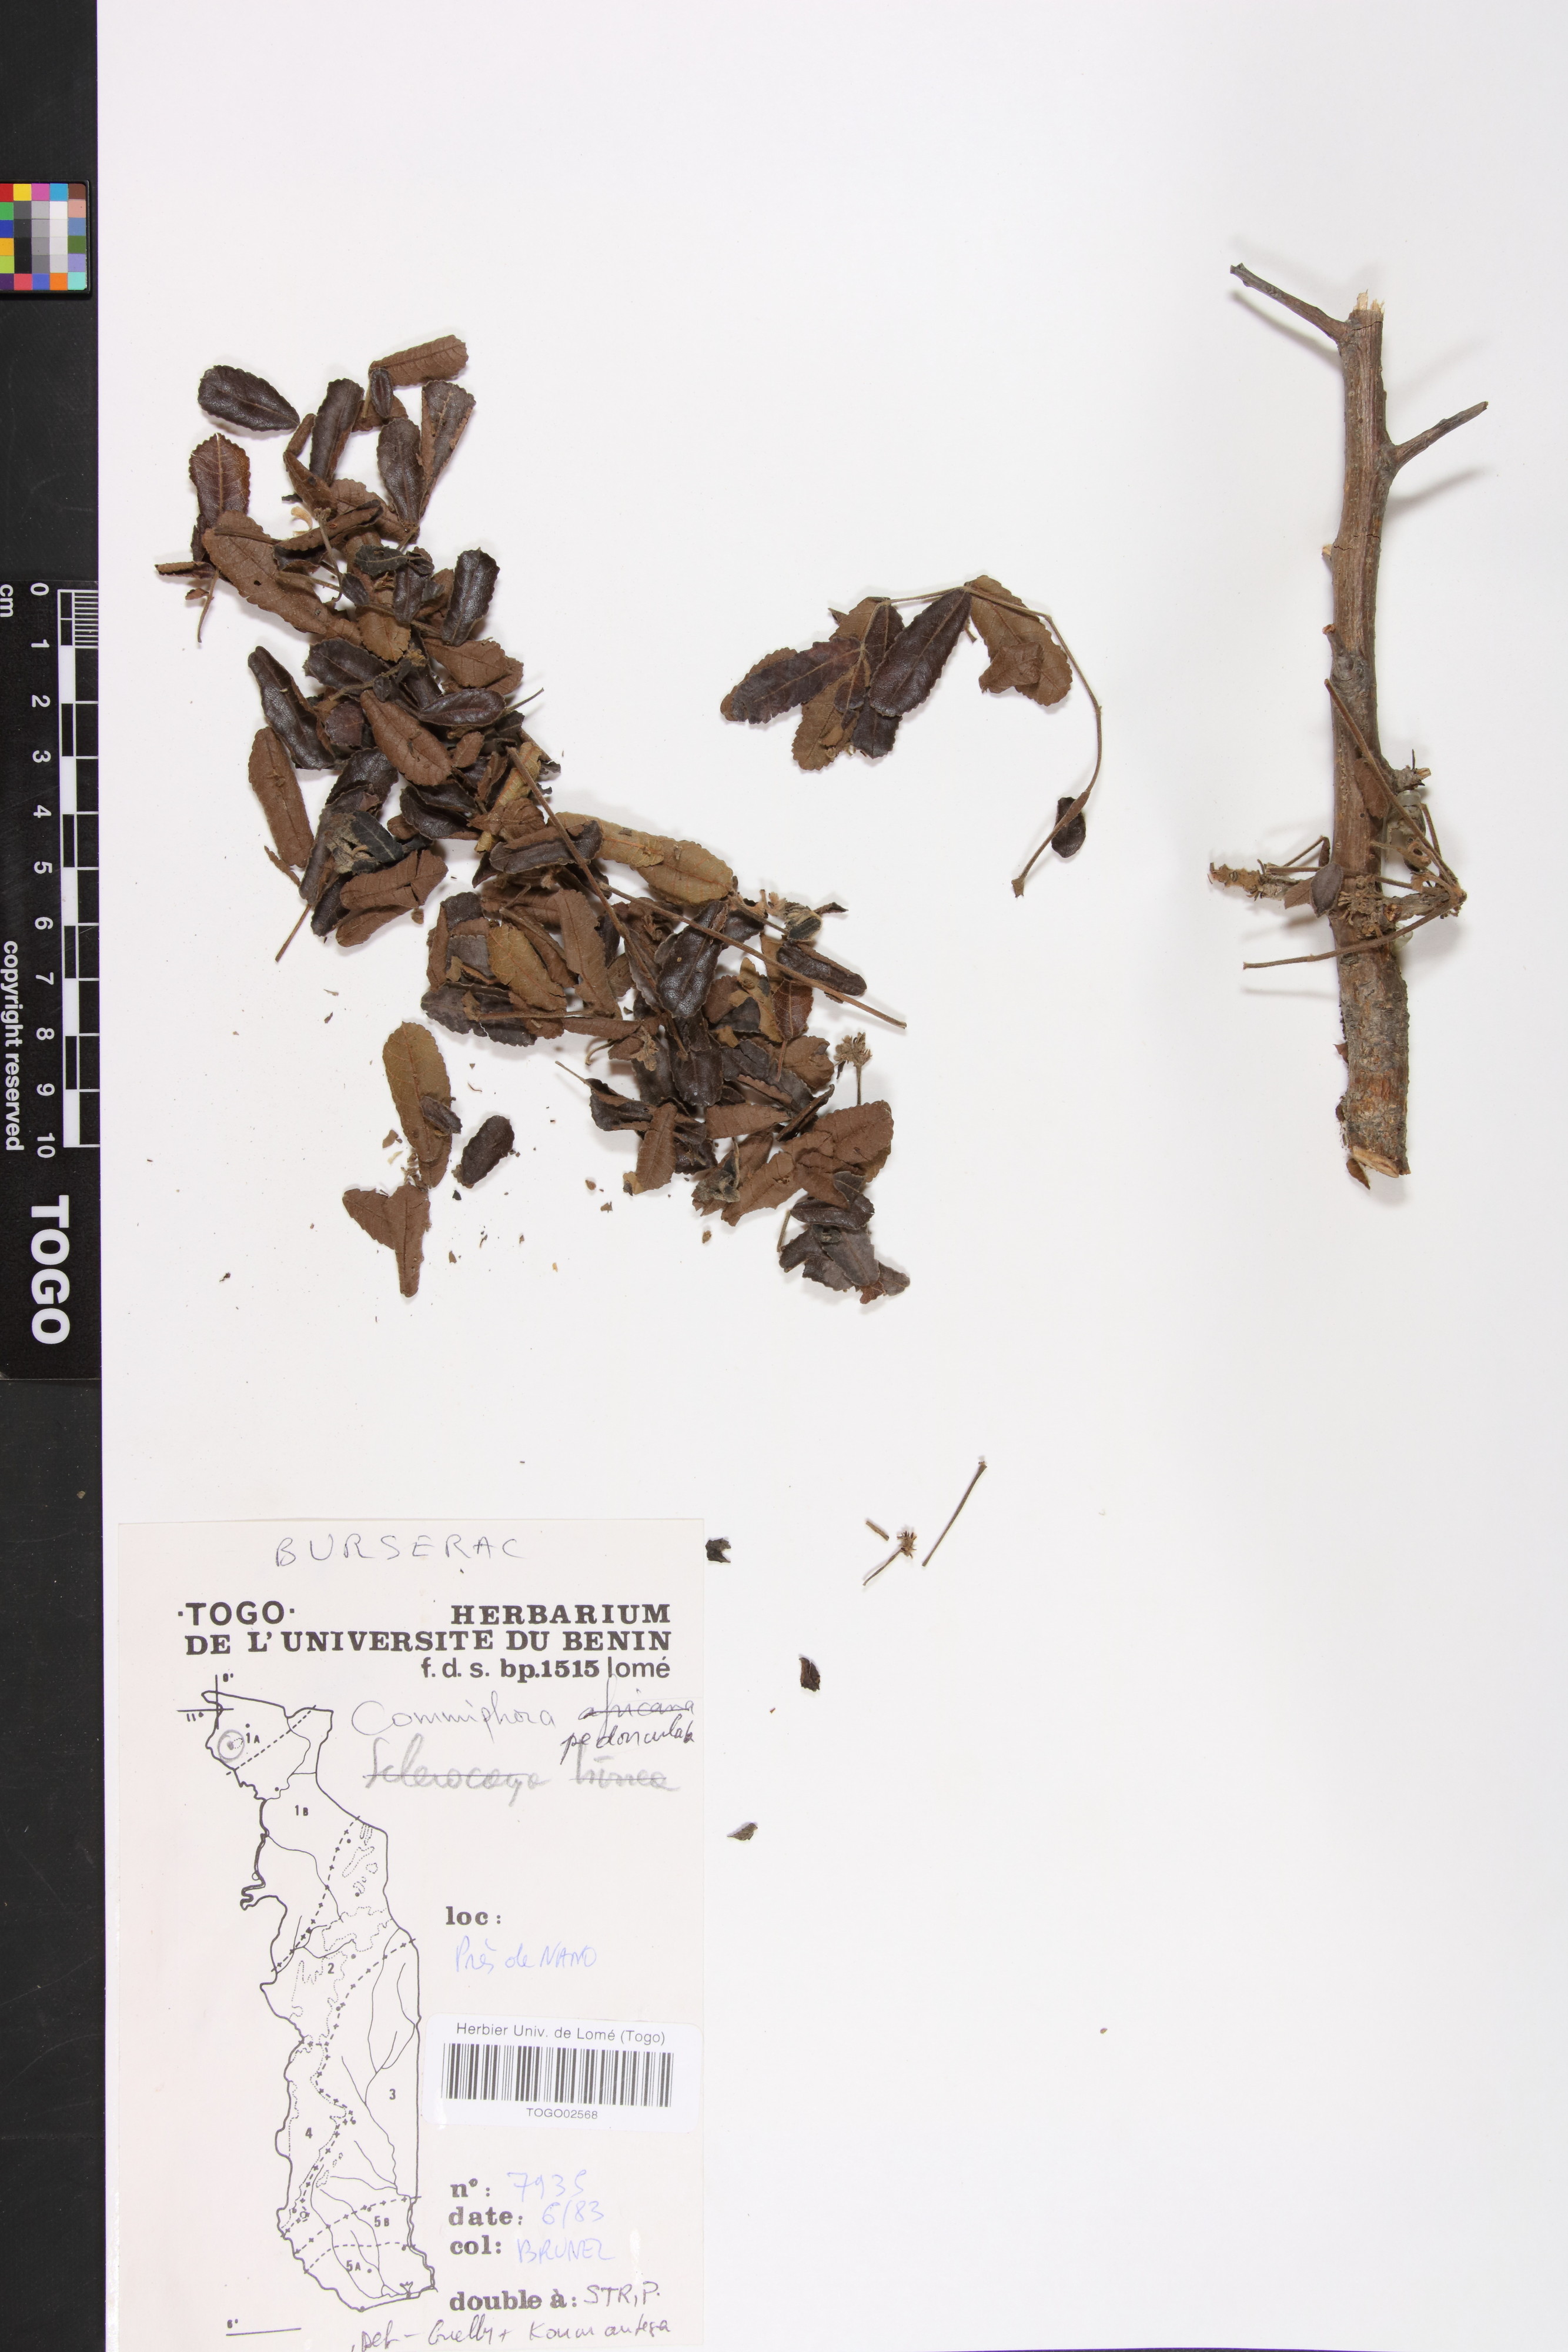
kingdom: Plantae
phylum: Tracheophyta
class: Magnoliopsida
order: Sapindales
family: Burseraceae
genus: Commiphora
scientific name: Commiphora pedunculata
